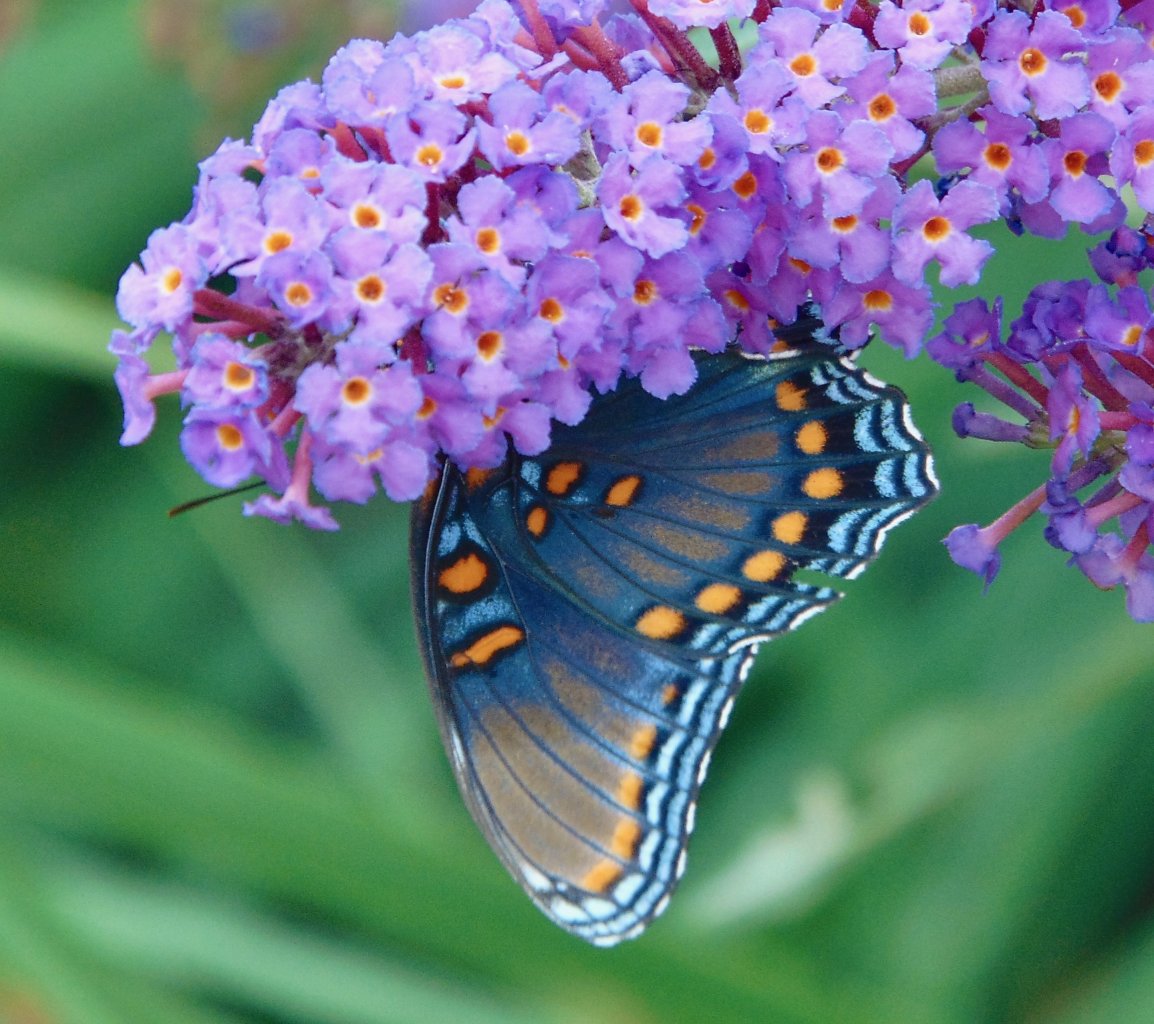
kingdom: Animalia
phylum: Arthropoda
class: Insecta
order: Lepidoptera
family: Nymphalidae
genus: Limenitis
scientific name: Limenitis astyanax
